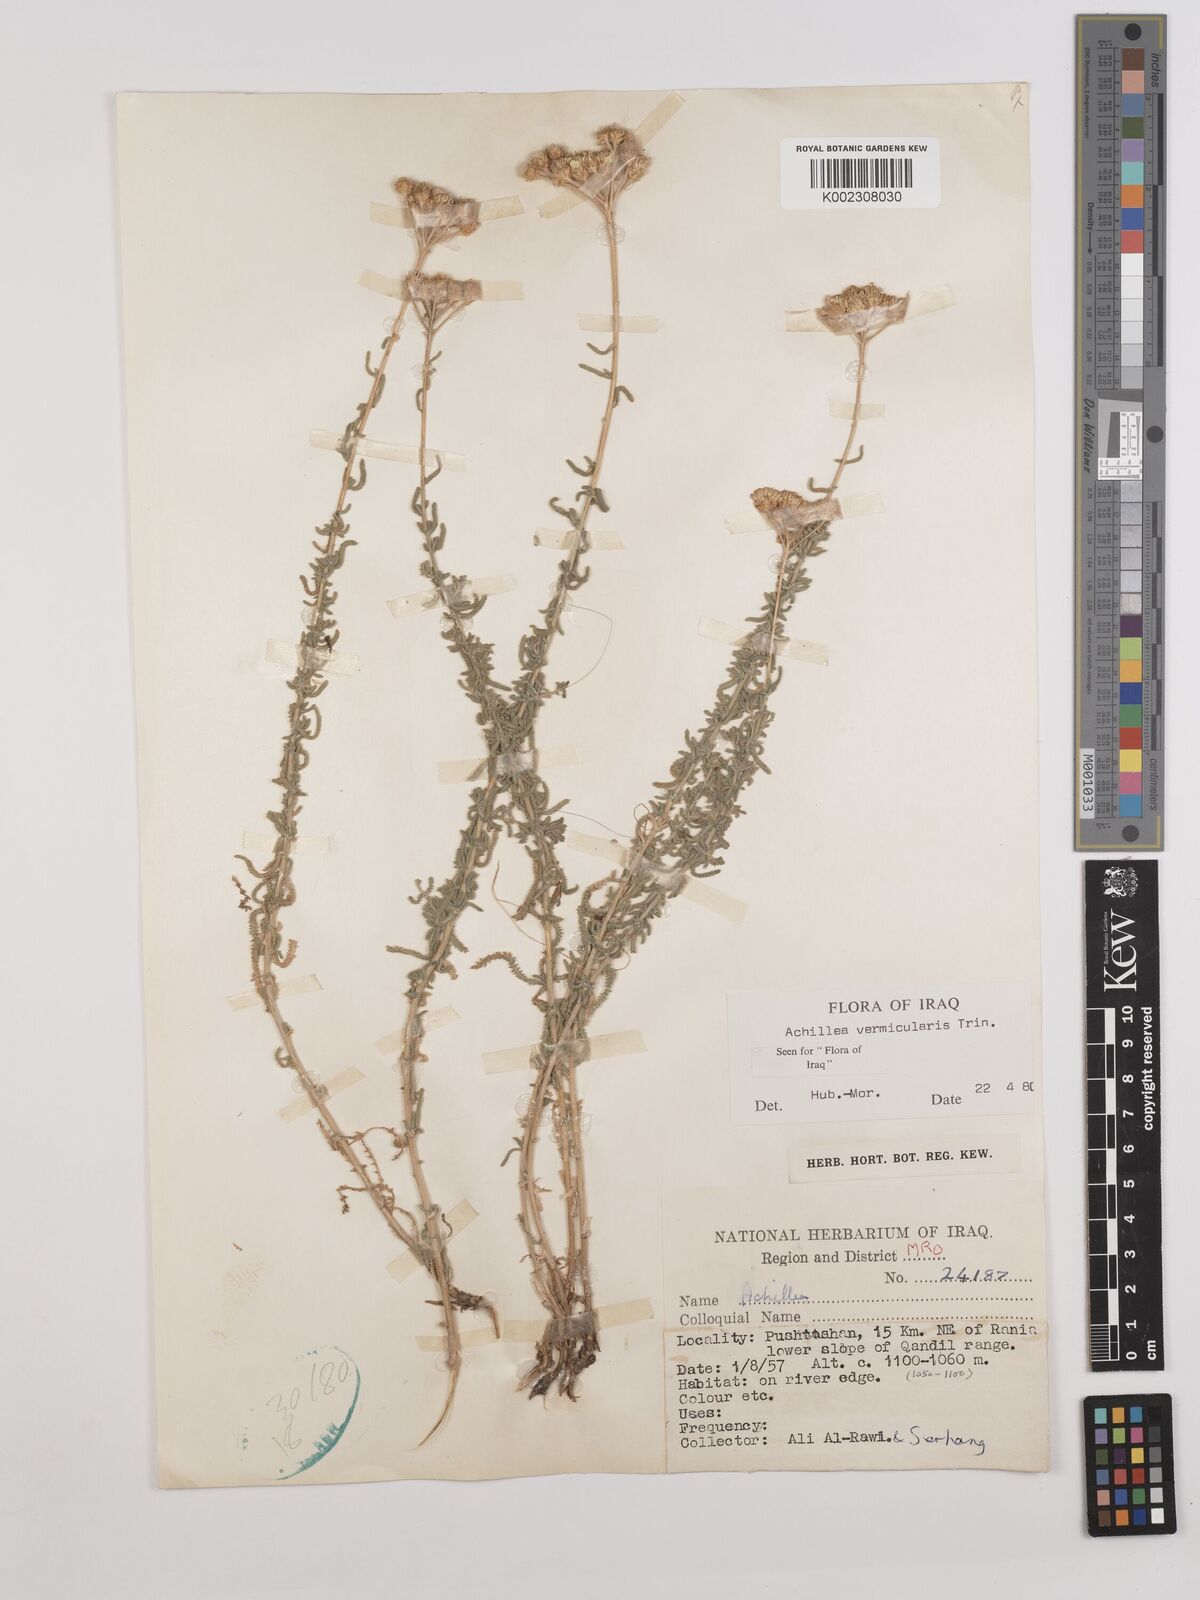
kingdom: Plantae
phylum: Tracheophyta
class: Magnoliopsida
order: Asterales
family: Asteraceae
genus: Achillea
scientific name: Achillea vermicularis
